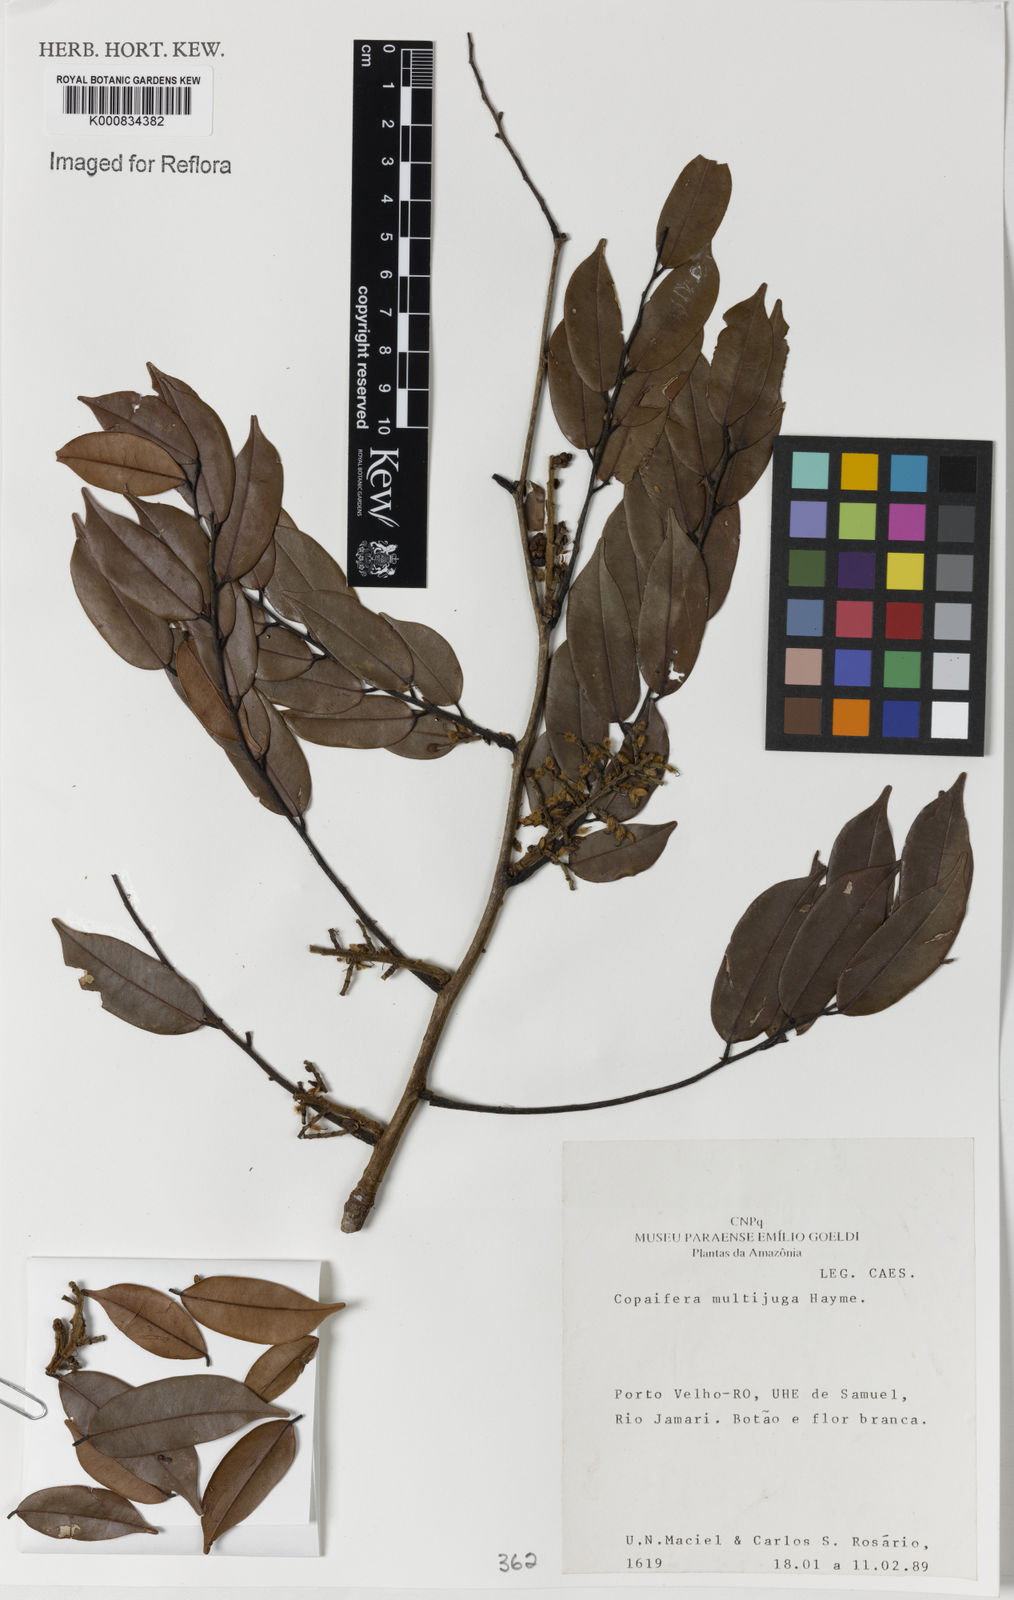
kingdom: Plantae
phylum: Tracheophyta
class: Magnoliopsida
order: Fabales
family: Fabaceae
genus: Copaifera
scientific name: Copaifera multijuga
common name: Brazilian copaiba
